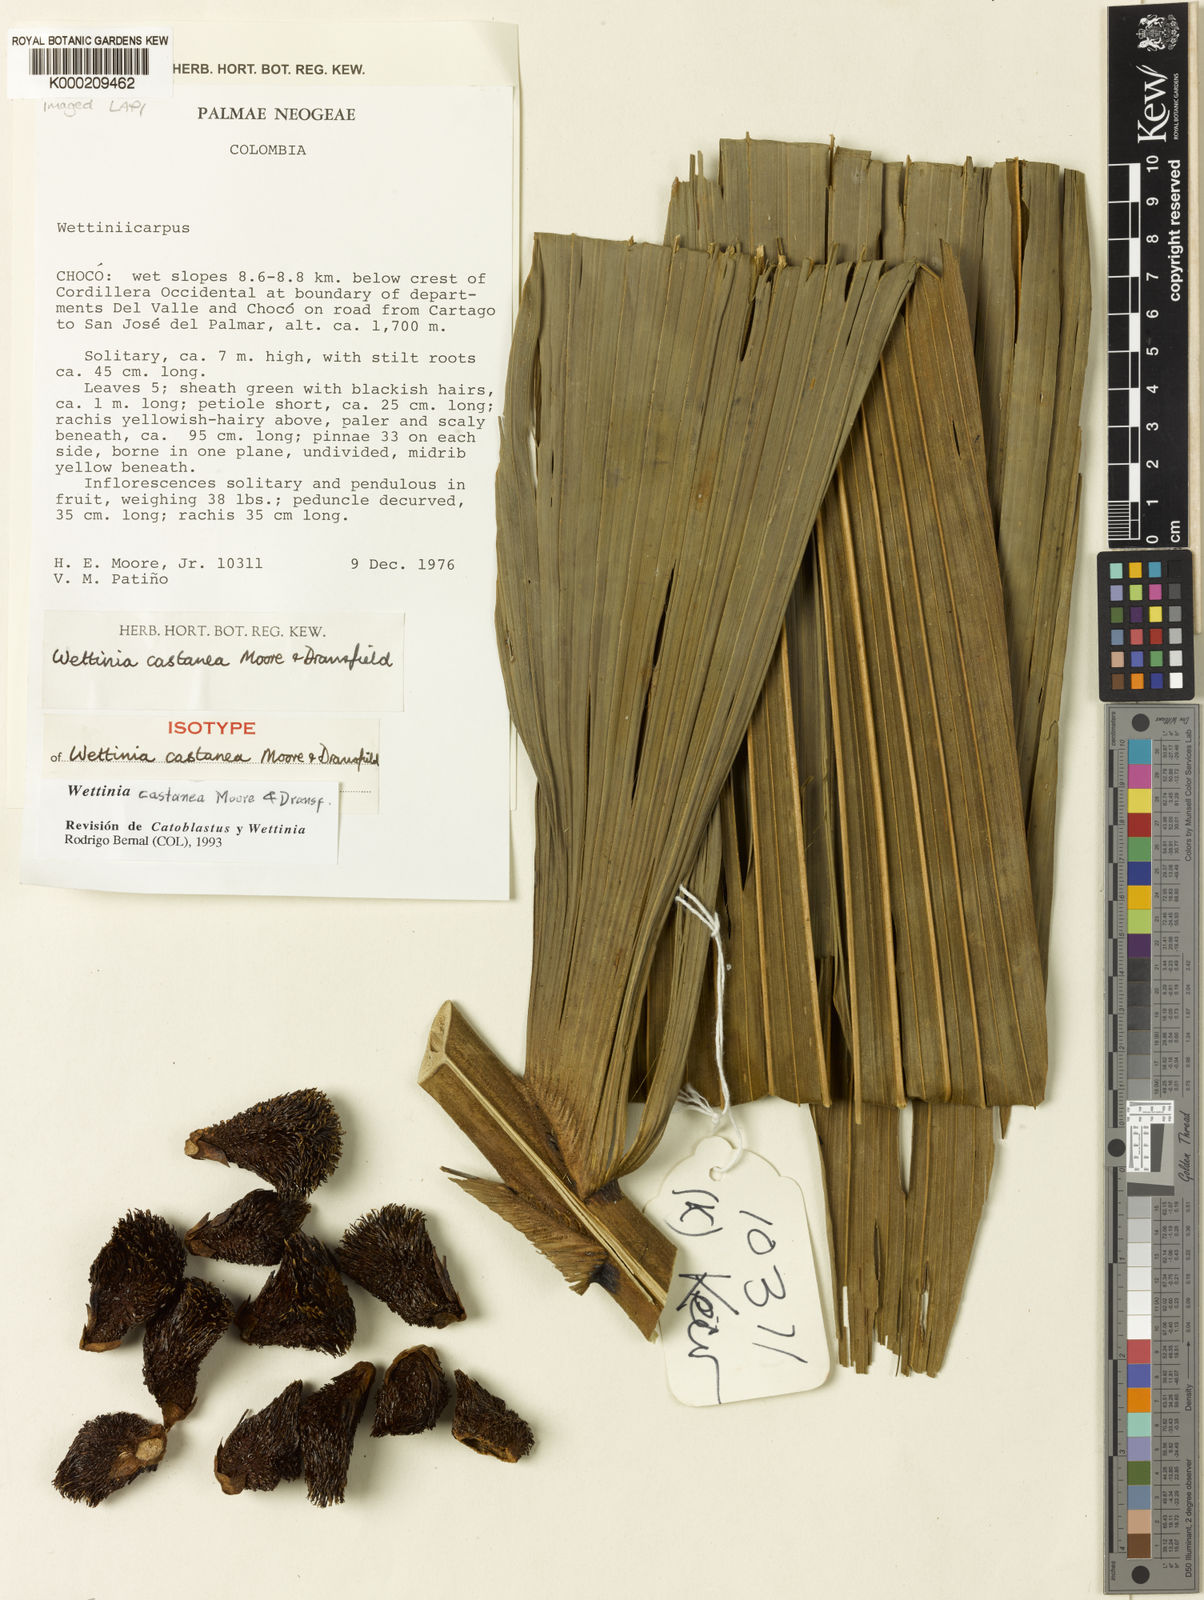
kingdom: Plantae
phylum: Tracheophyta
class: Liliopsida
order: Arecales
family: Arecaceae
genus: Wettinia
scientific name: Wettinia castanea
